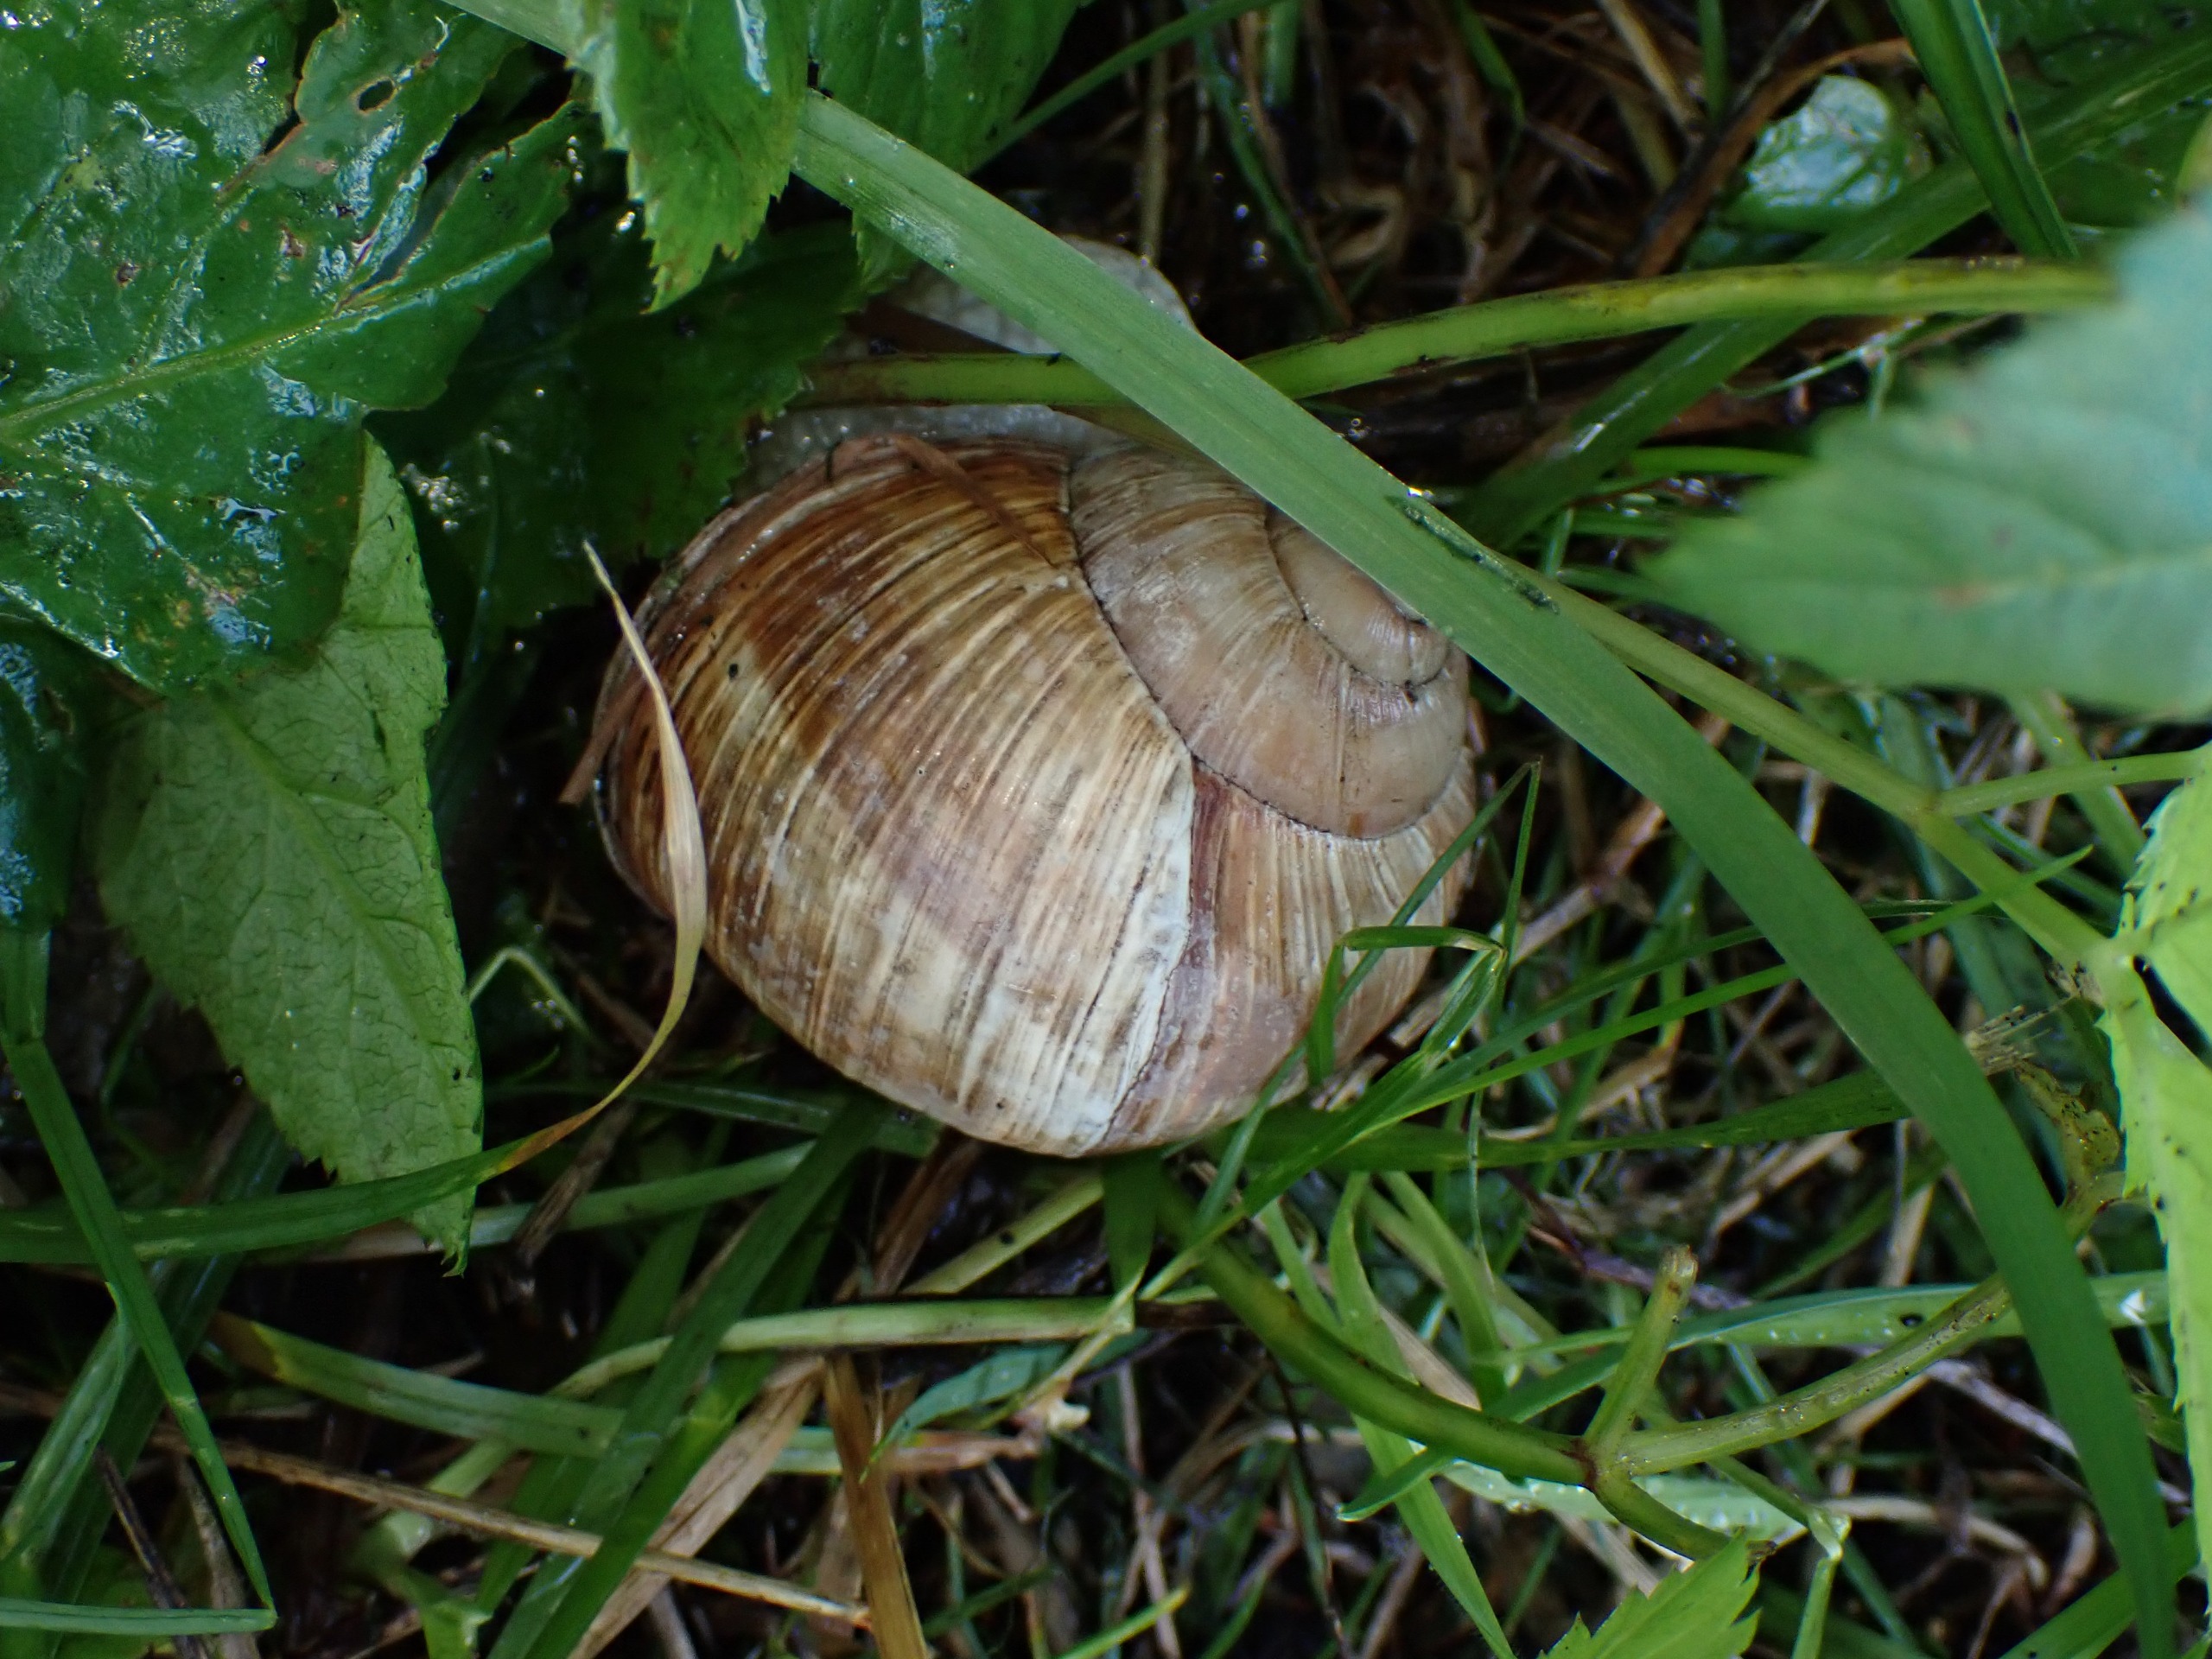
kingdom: Animalia
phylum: Mollusca
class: Gastropoda
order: Stylommatophora
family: Helicidae
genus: Helix
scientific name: Helix pomatia
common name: Vinbjergsnegl
